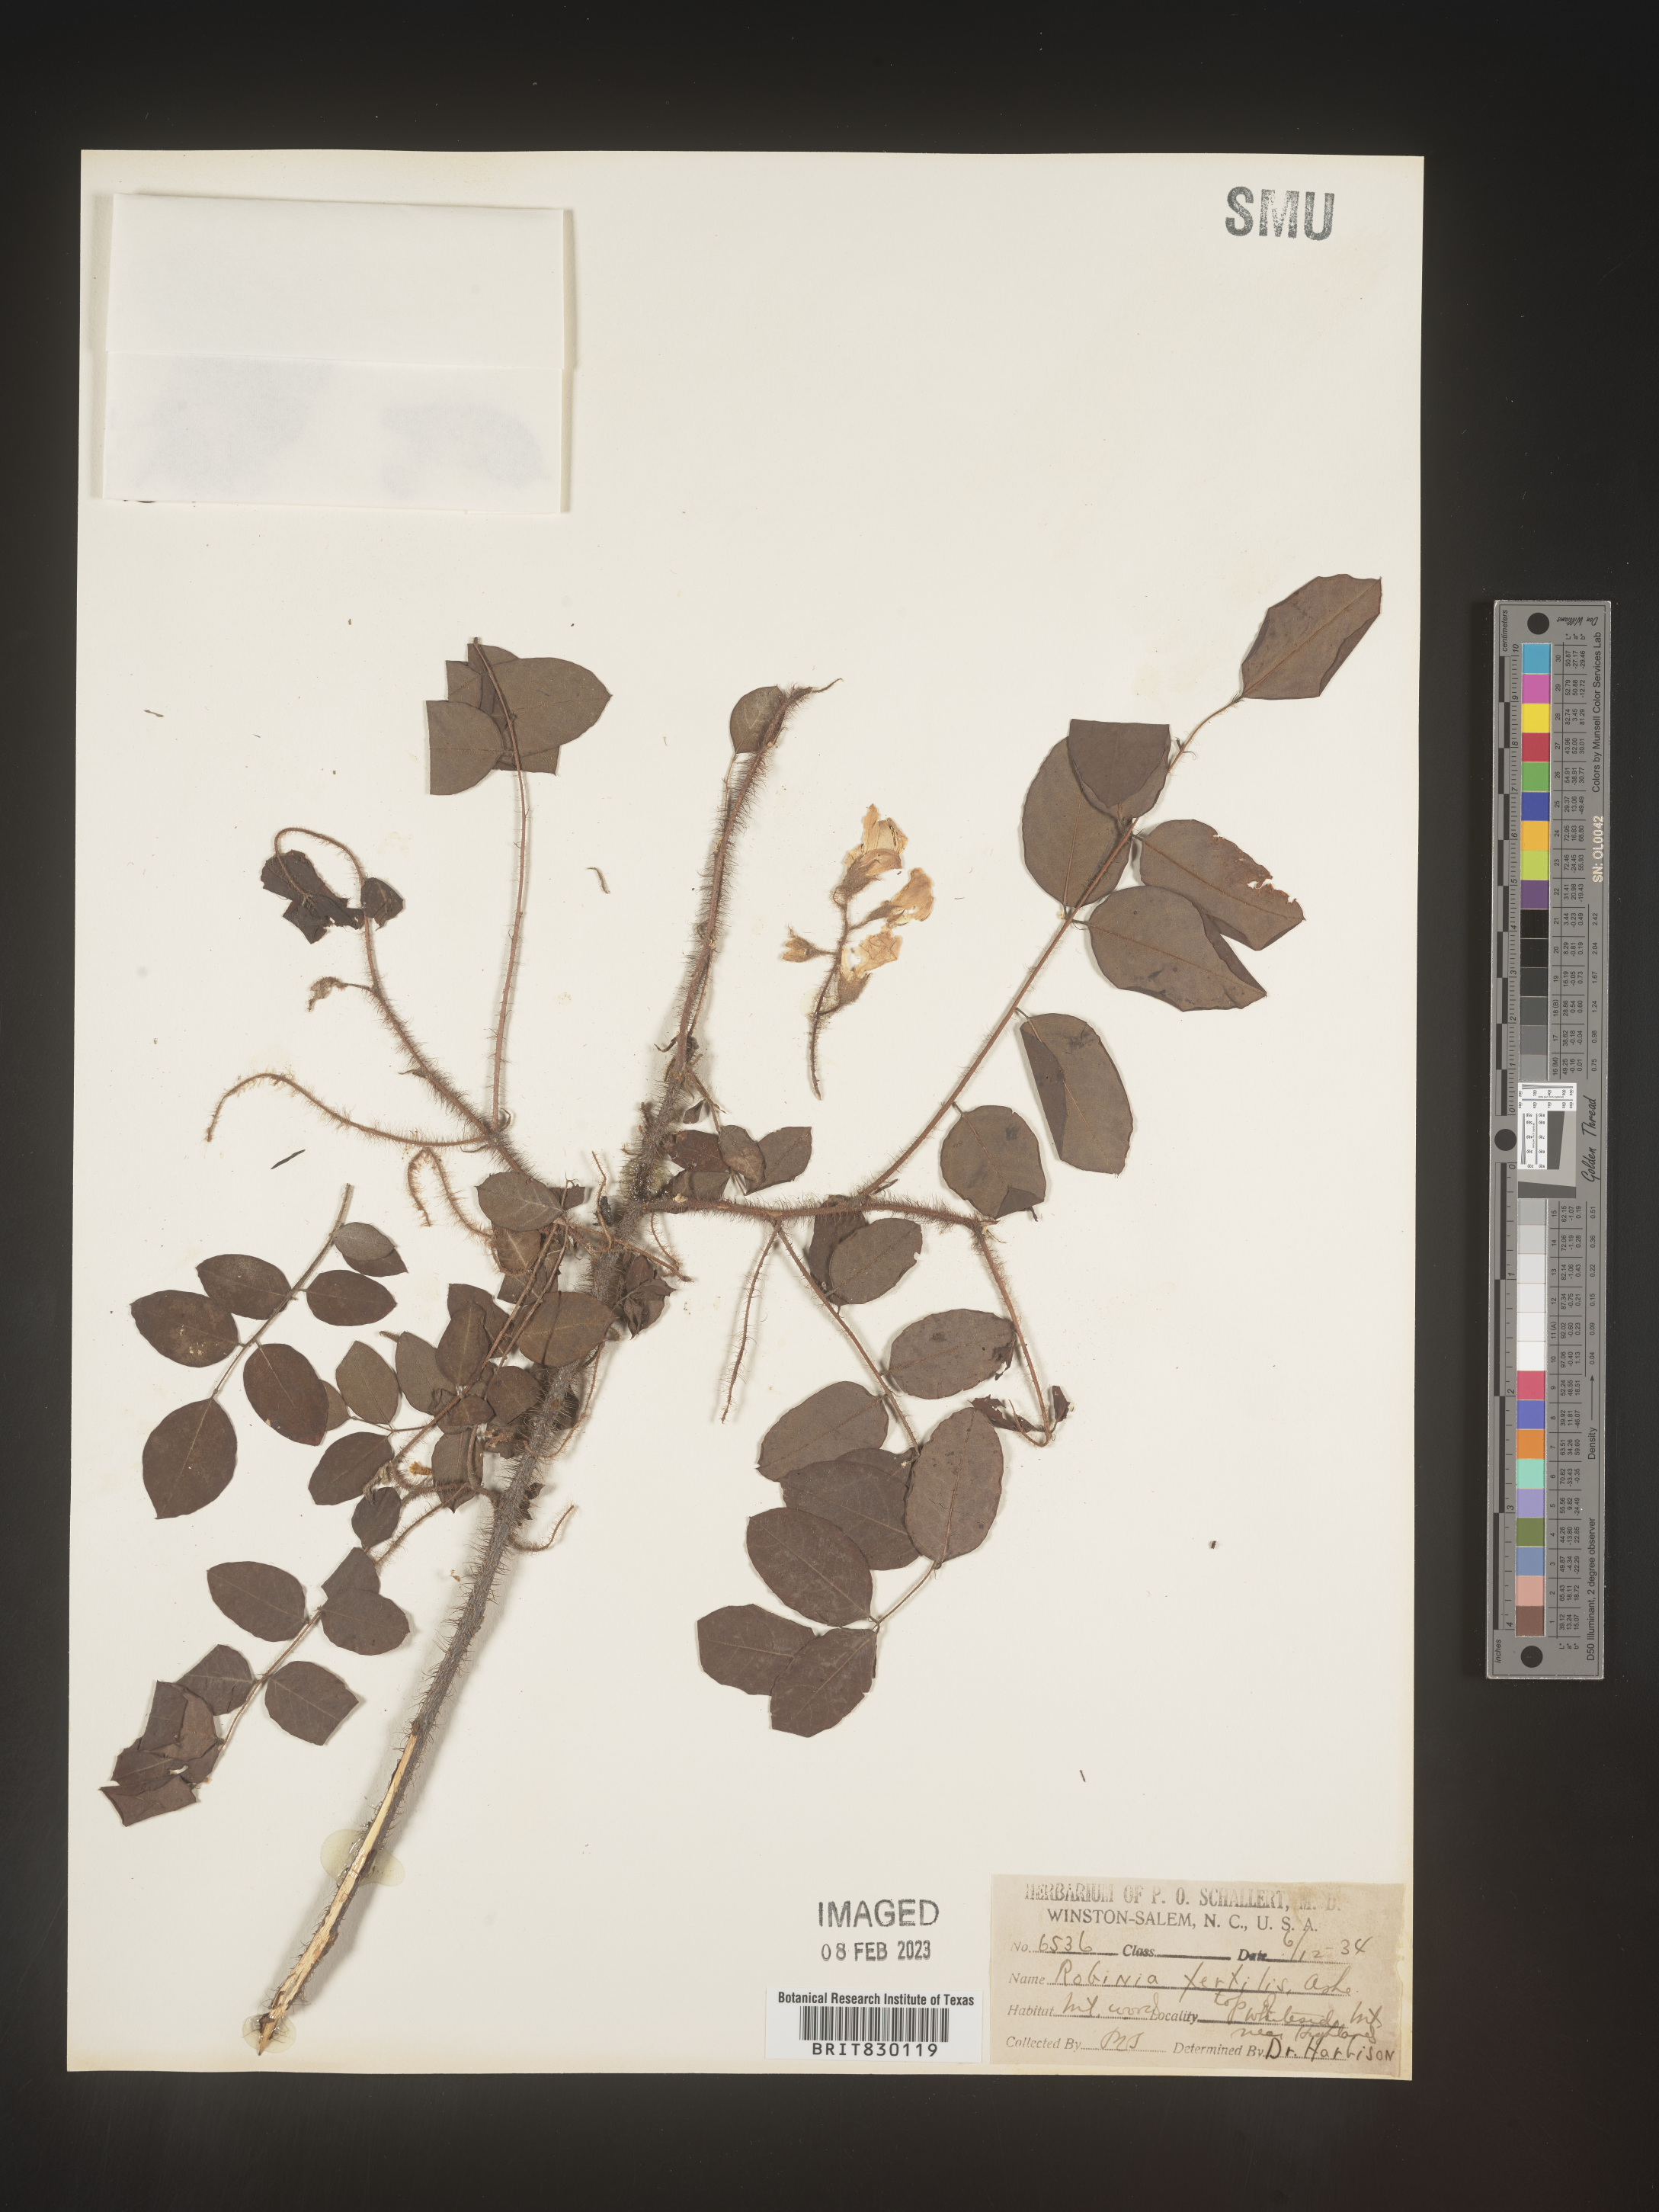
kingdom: Plantae
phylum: Tracheophyta
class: Magnoliopsida
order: Fabales
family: Fabaceae
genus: Robinia
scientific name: Robinia
